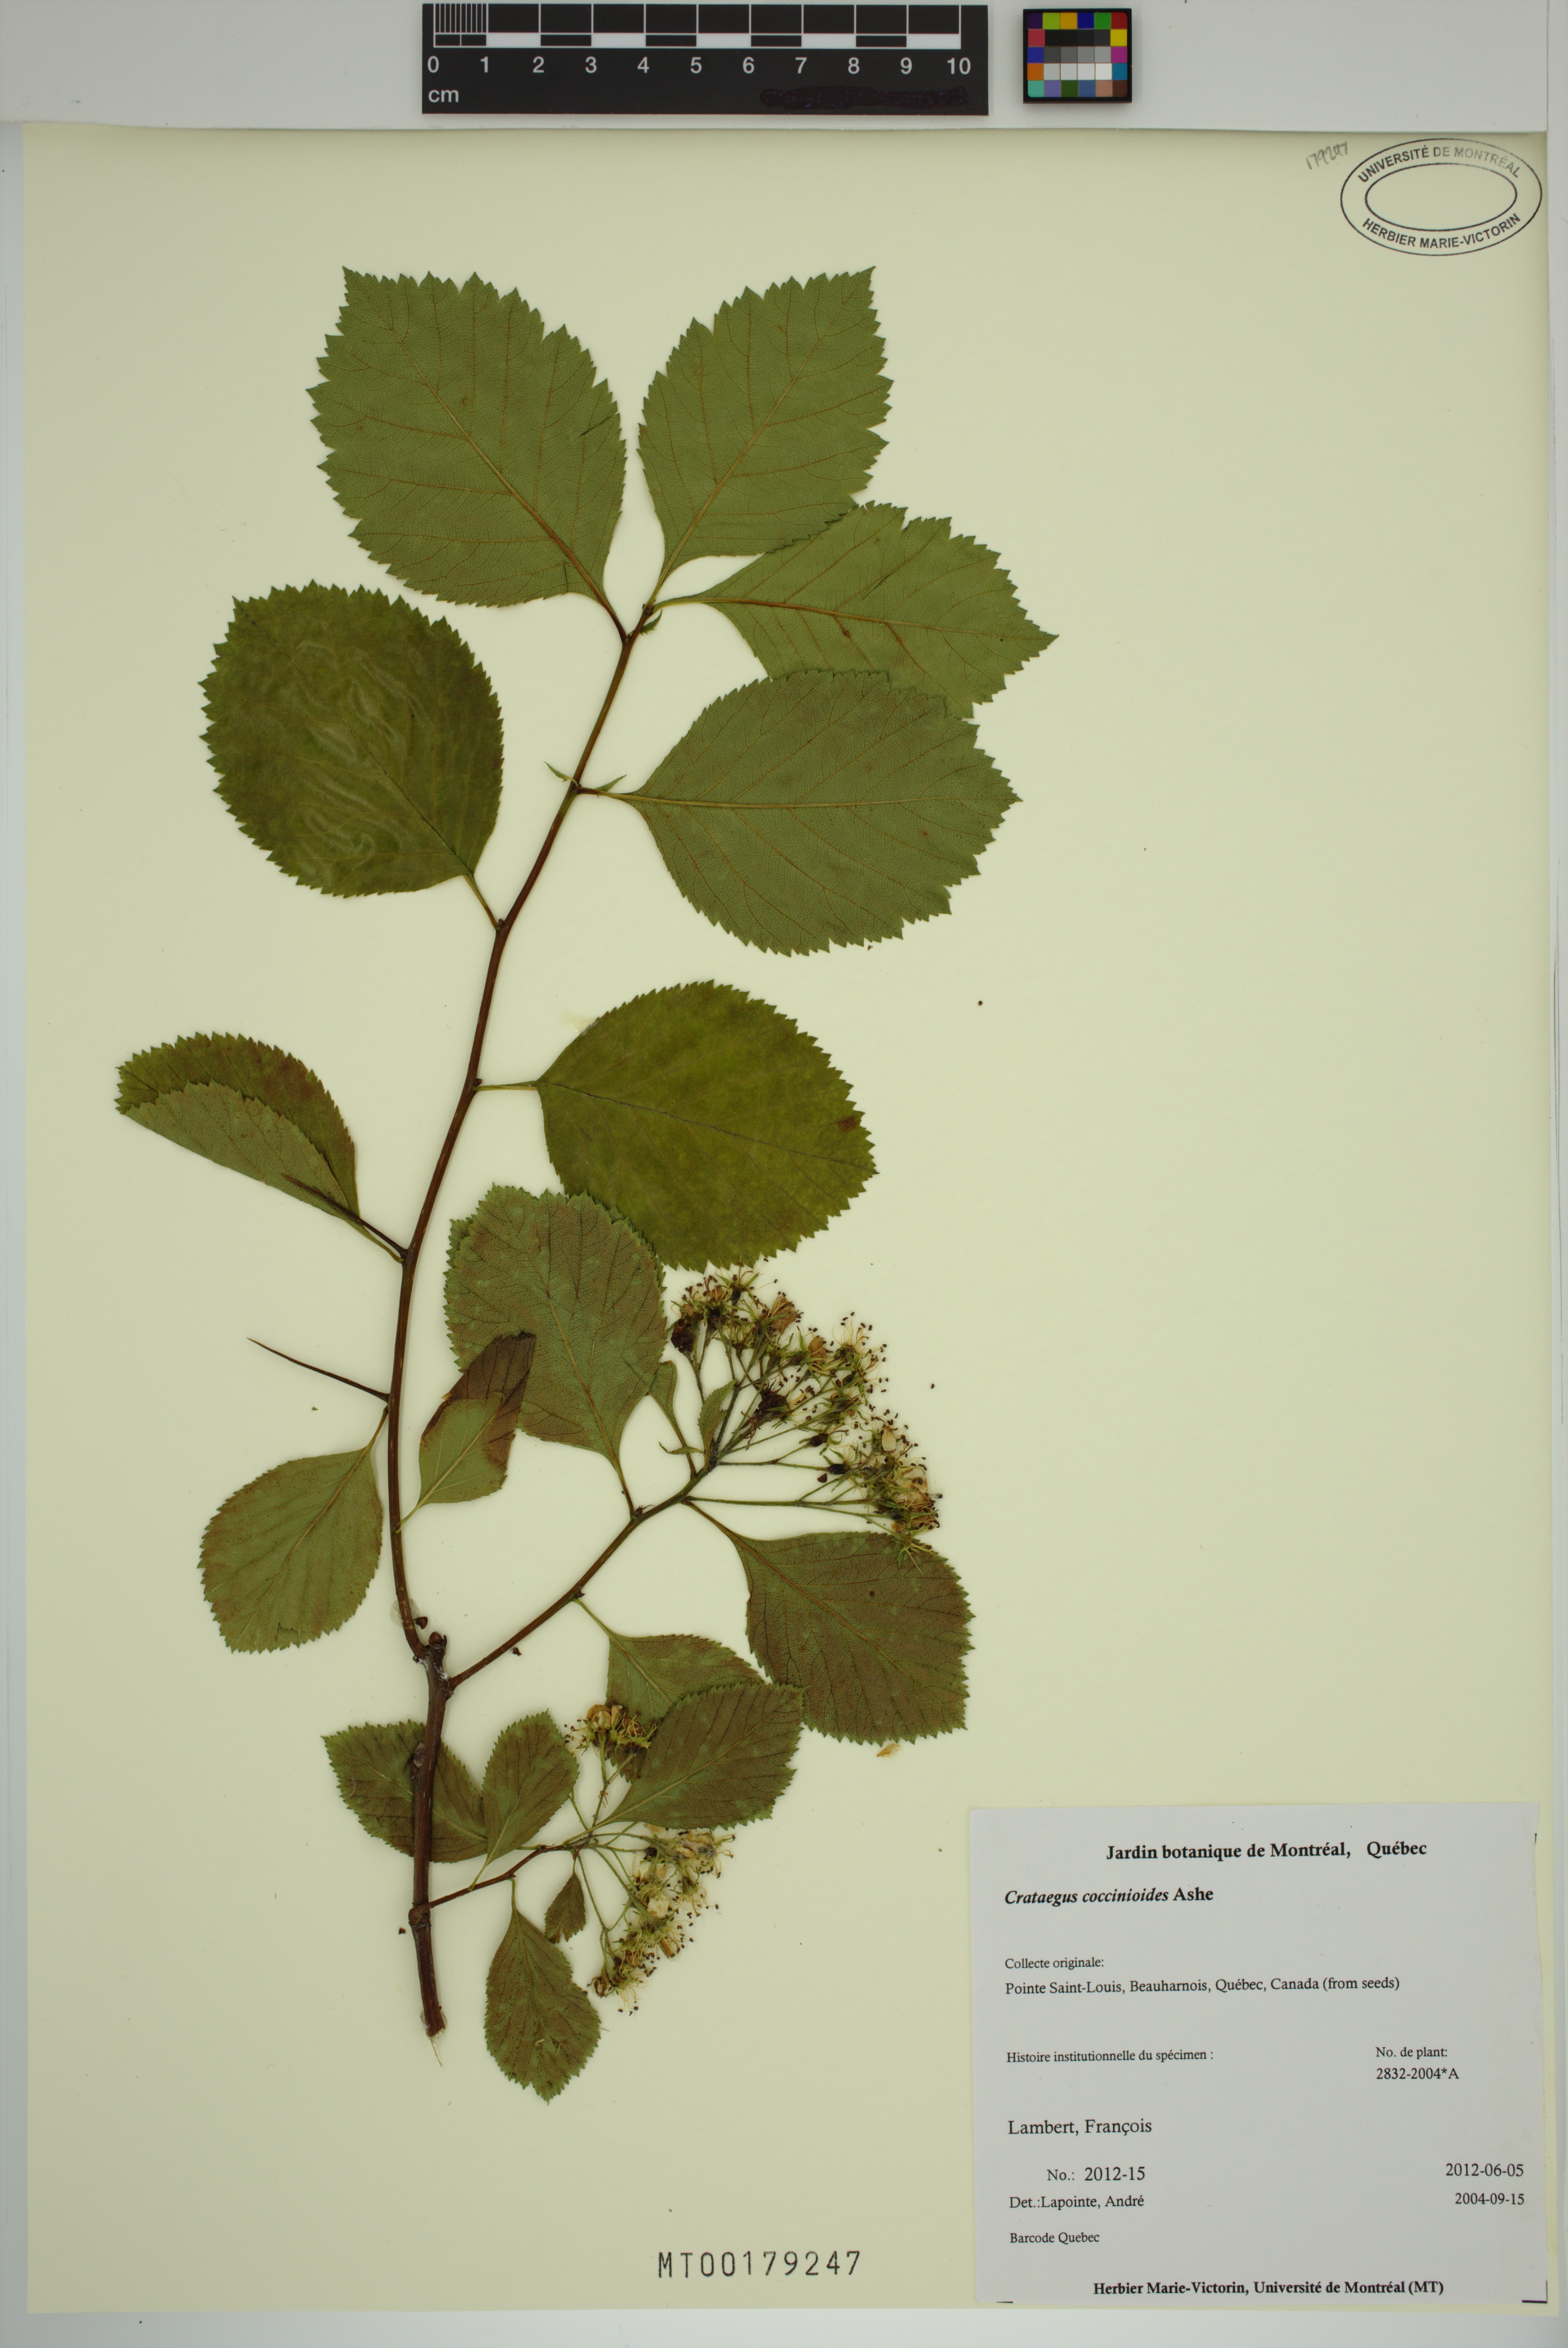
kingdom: Plantae
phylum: Tracheophyta
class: Magnoliopsida
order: Rosales
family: Rosaceae
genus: Crataegus
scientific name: Crataegus coccinioides
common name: Large-flowered cockspurthorn
